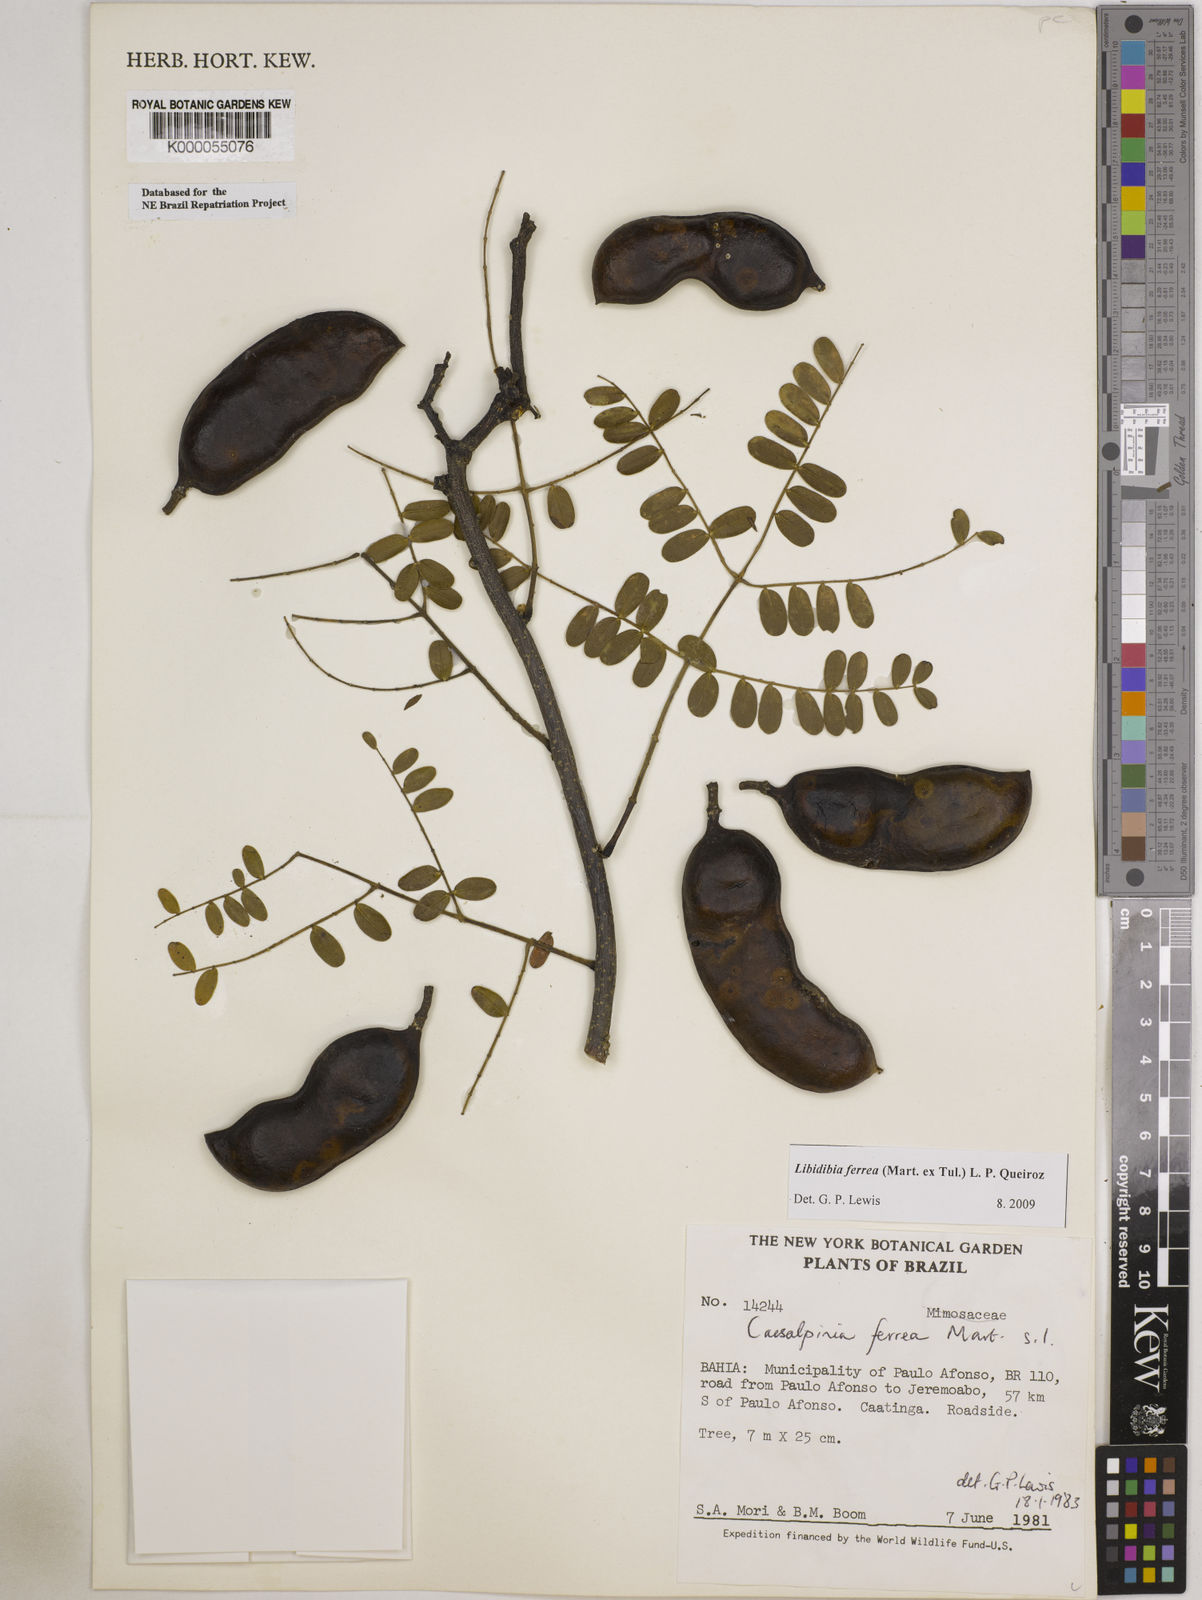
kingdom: Plantae
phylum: Tracheophyta
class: Magnoliopsida
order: Fabales
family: Fabaceae
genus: Libidibia
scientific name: Libidibia ferrea
